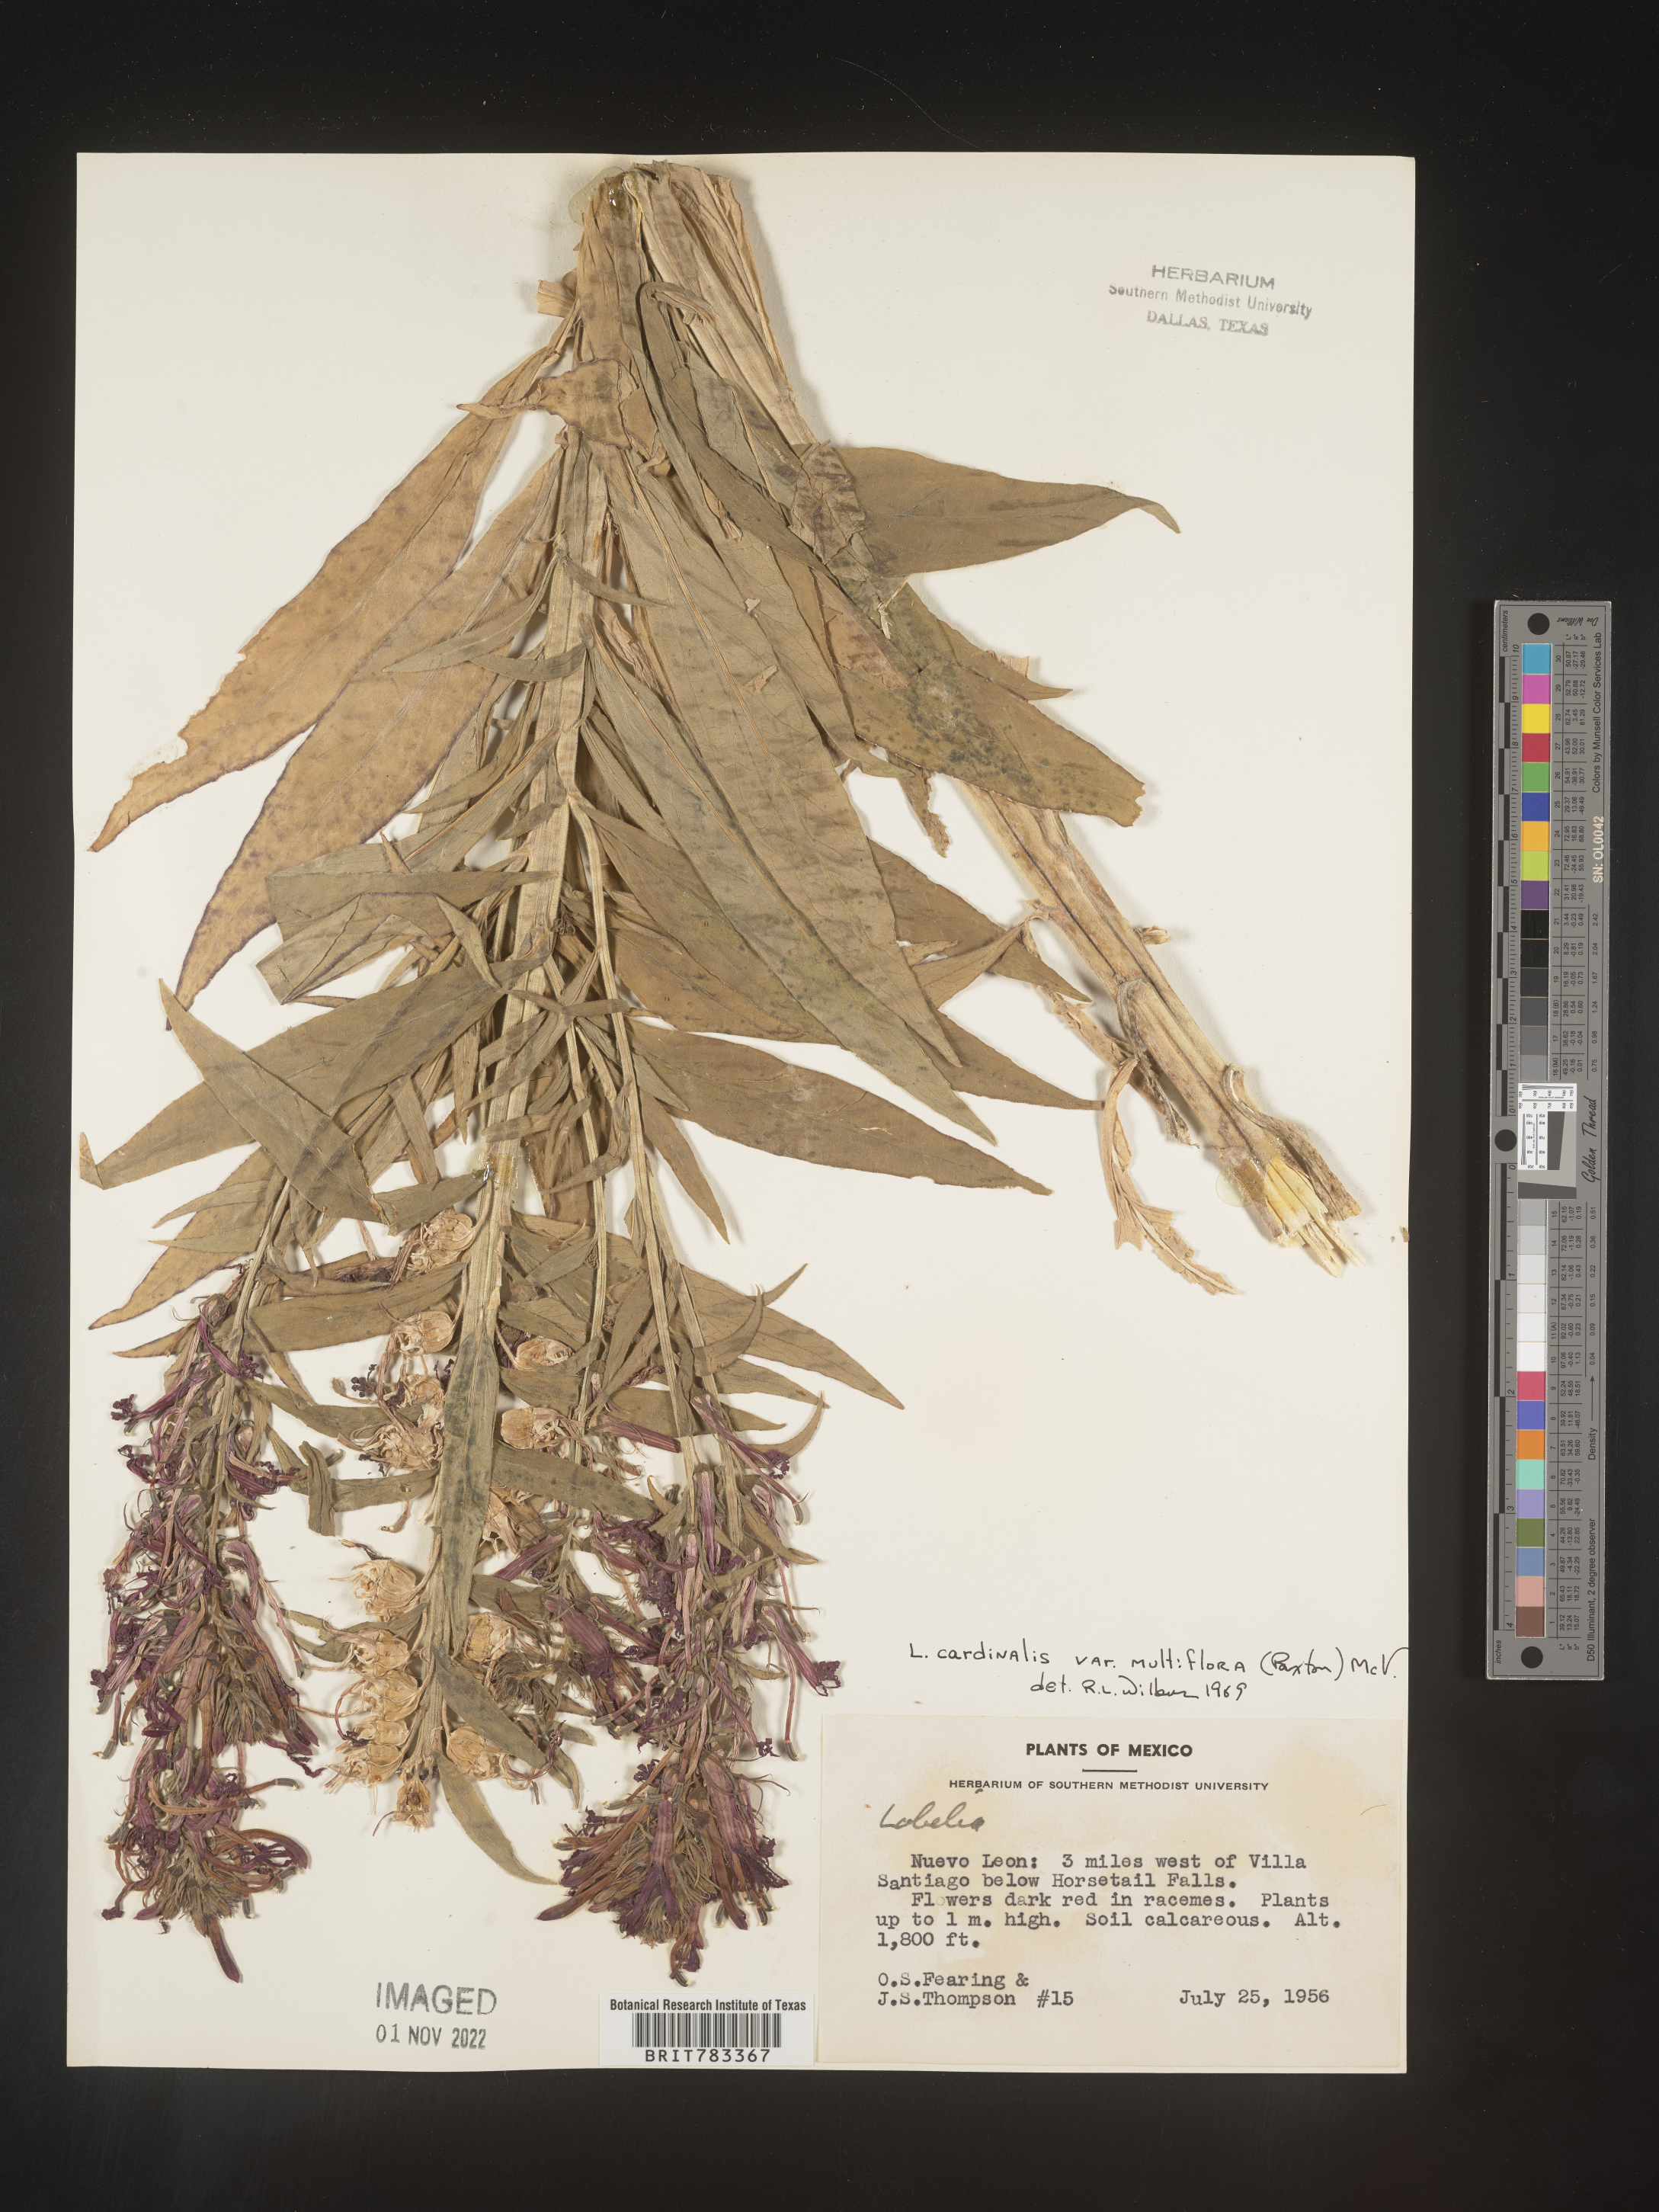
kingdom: Plantae
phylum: Tracheophyta
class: Magnoliopsida
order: Asterales
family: Campanulaceae
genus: Lobelia
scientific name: Lobelia
